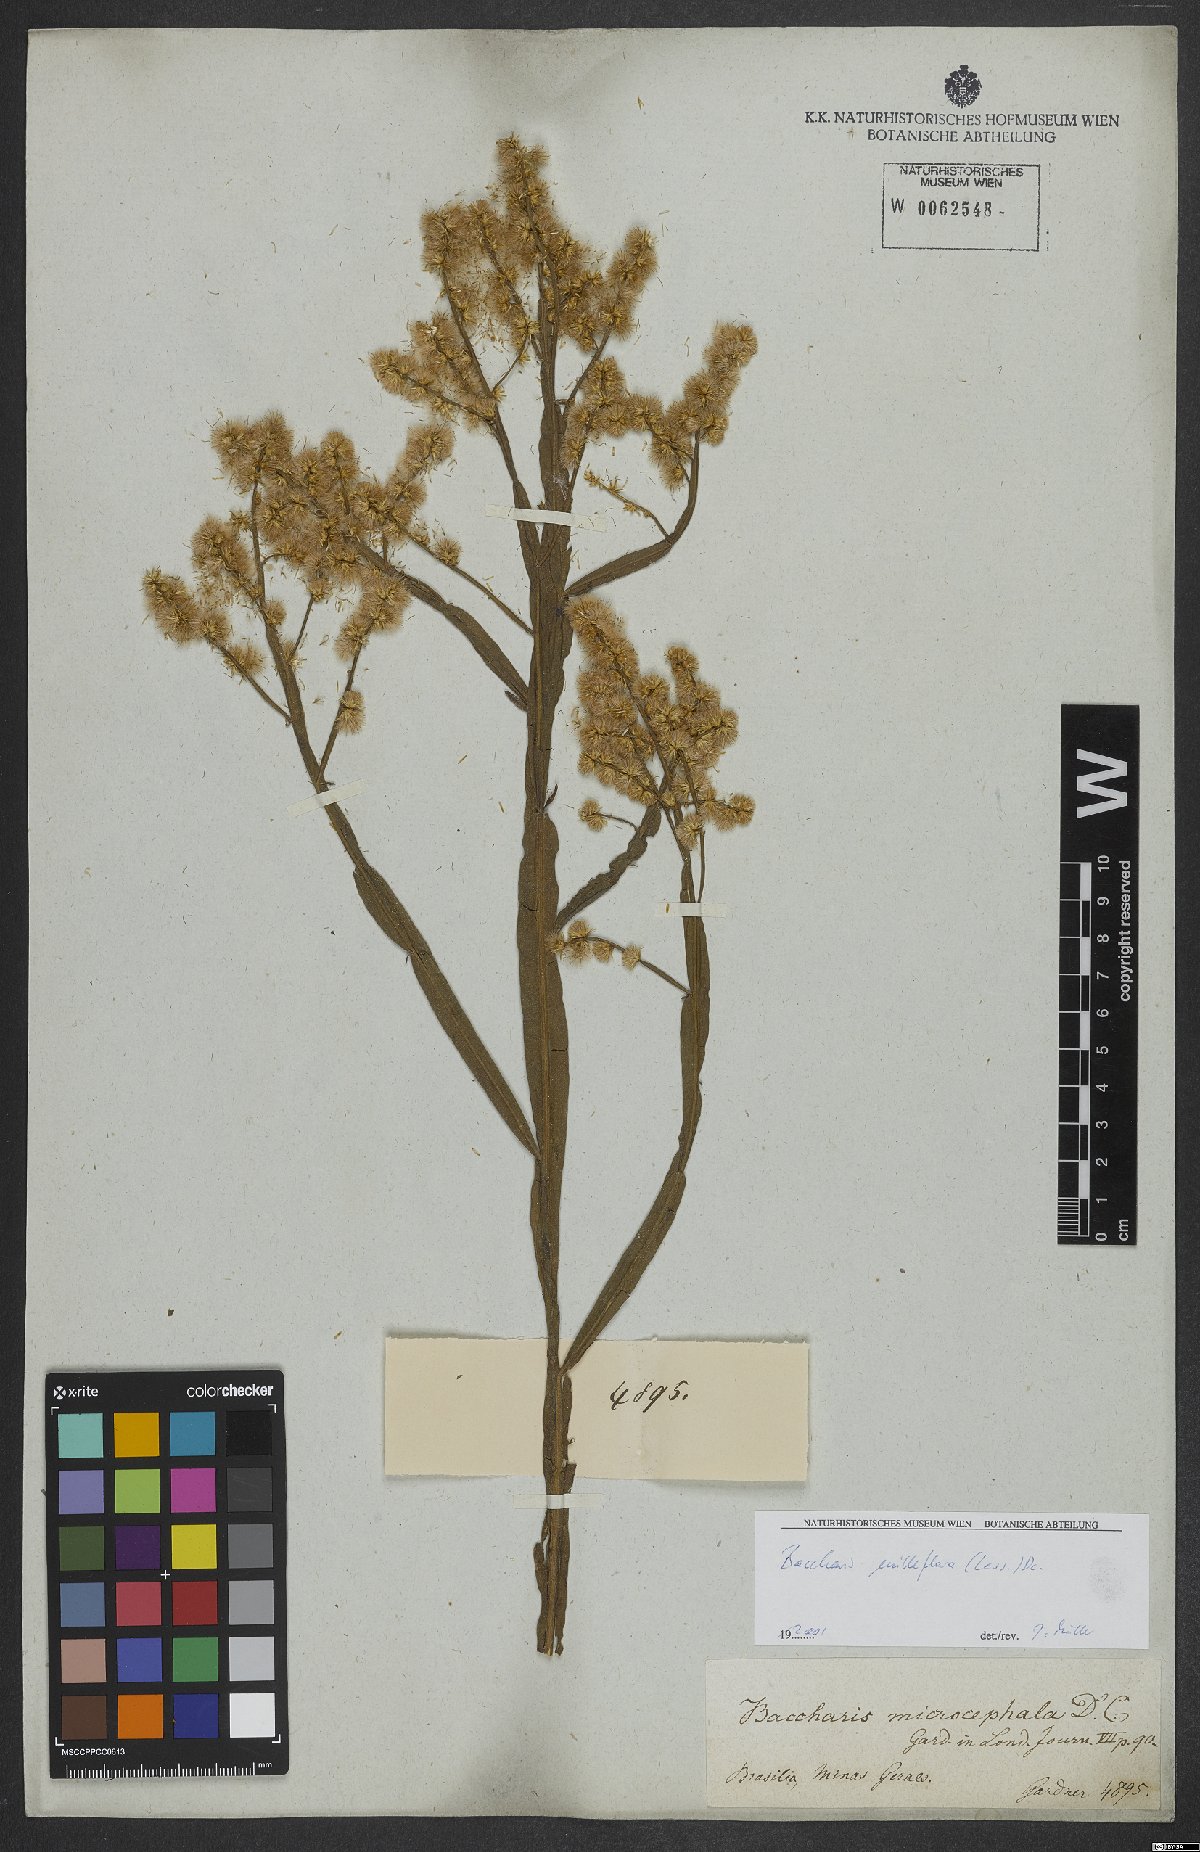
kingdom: Plantae
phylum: Tracheophyta
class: Magnoliopsida
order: Asterales
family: Asteraceae
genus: Baccharis
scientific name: Baccharis milleflora
